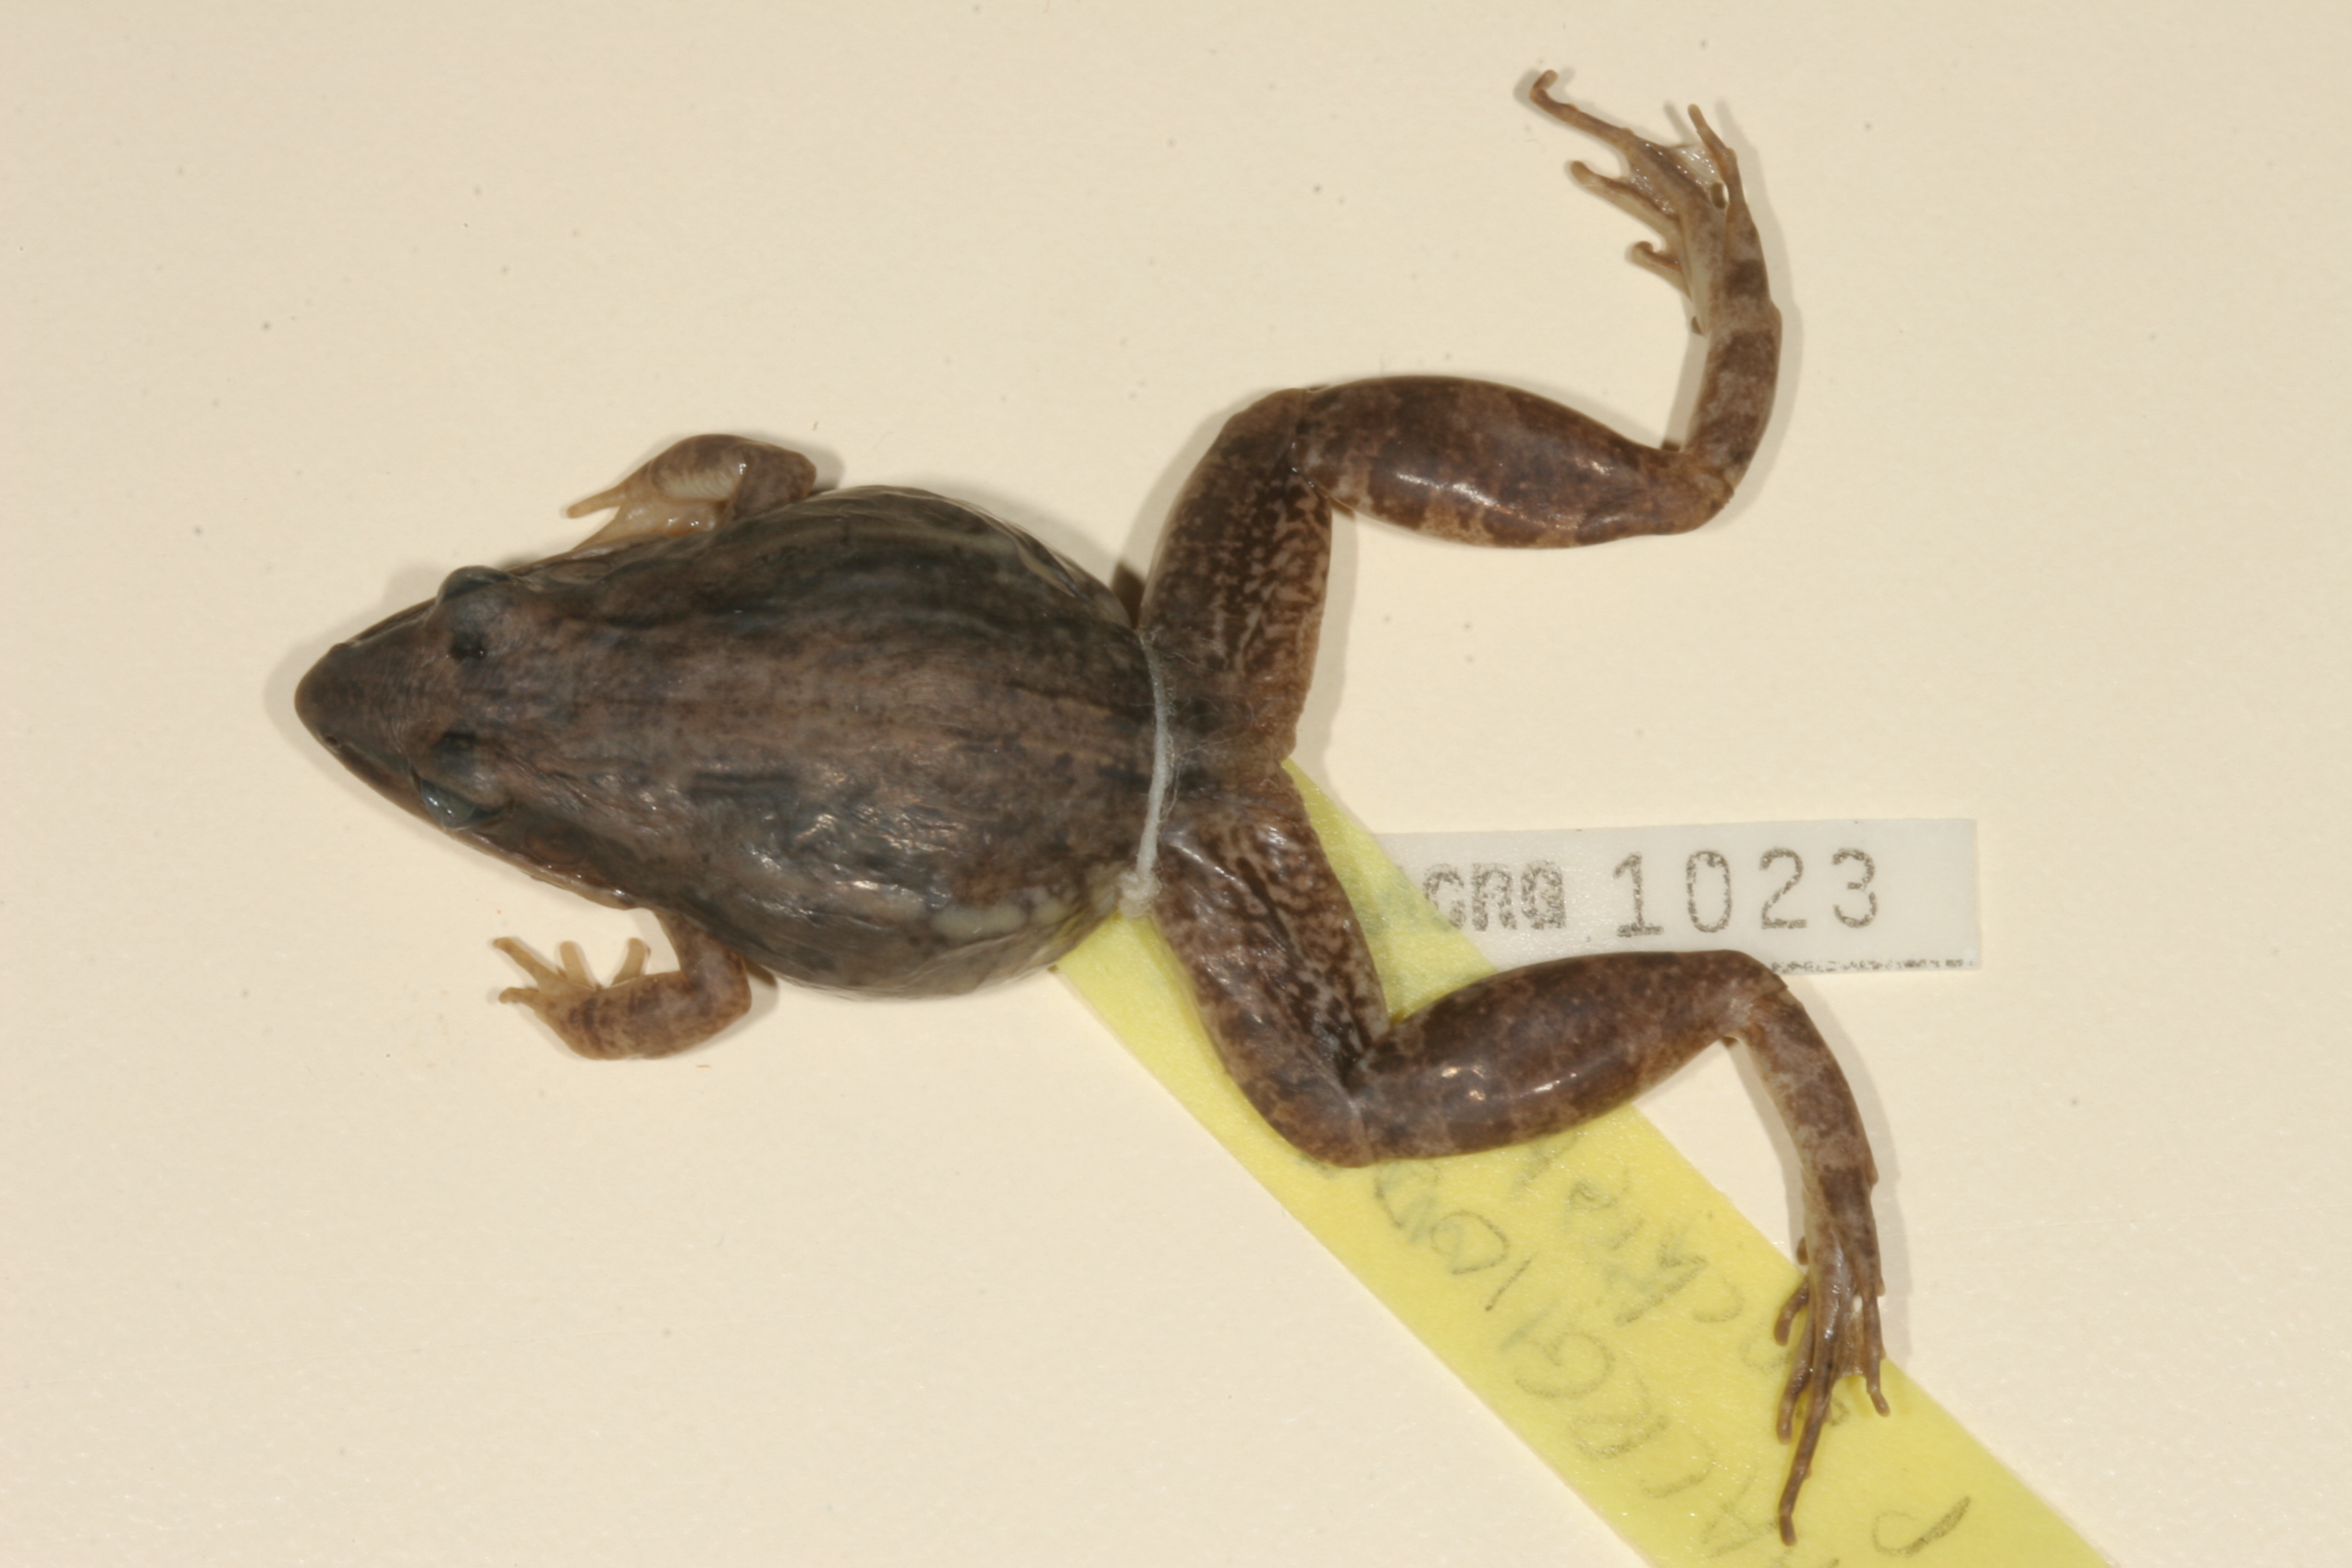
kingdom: Animalia
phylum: Chordata
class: Amphibia
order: Anura
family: Ptychadenidae
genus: Ptychadena
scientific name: Ptychadena anchietae
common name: Anchieta's ridged frog
